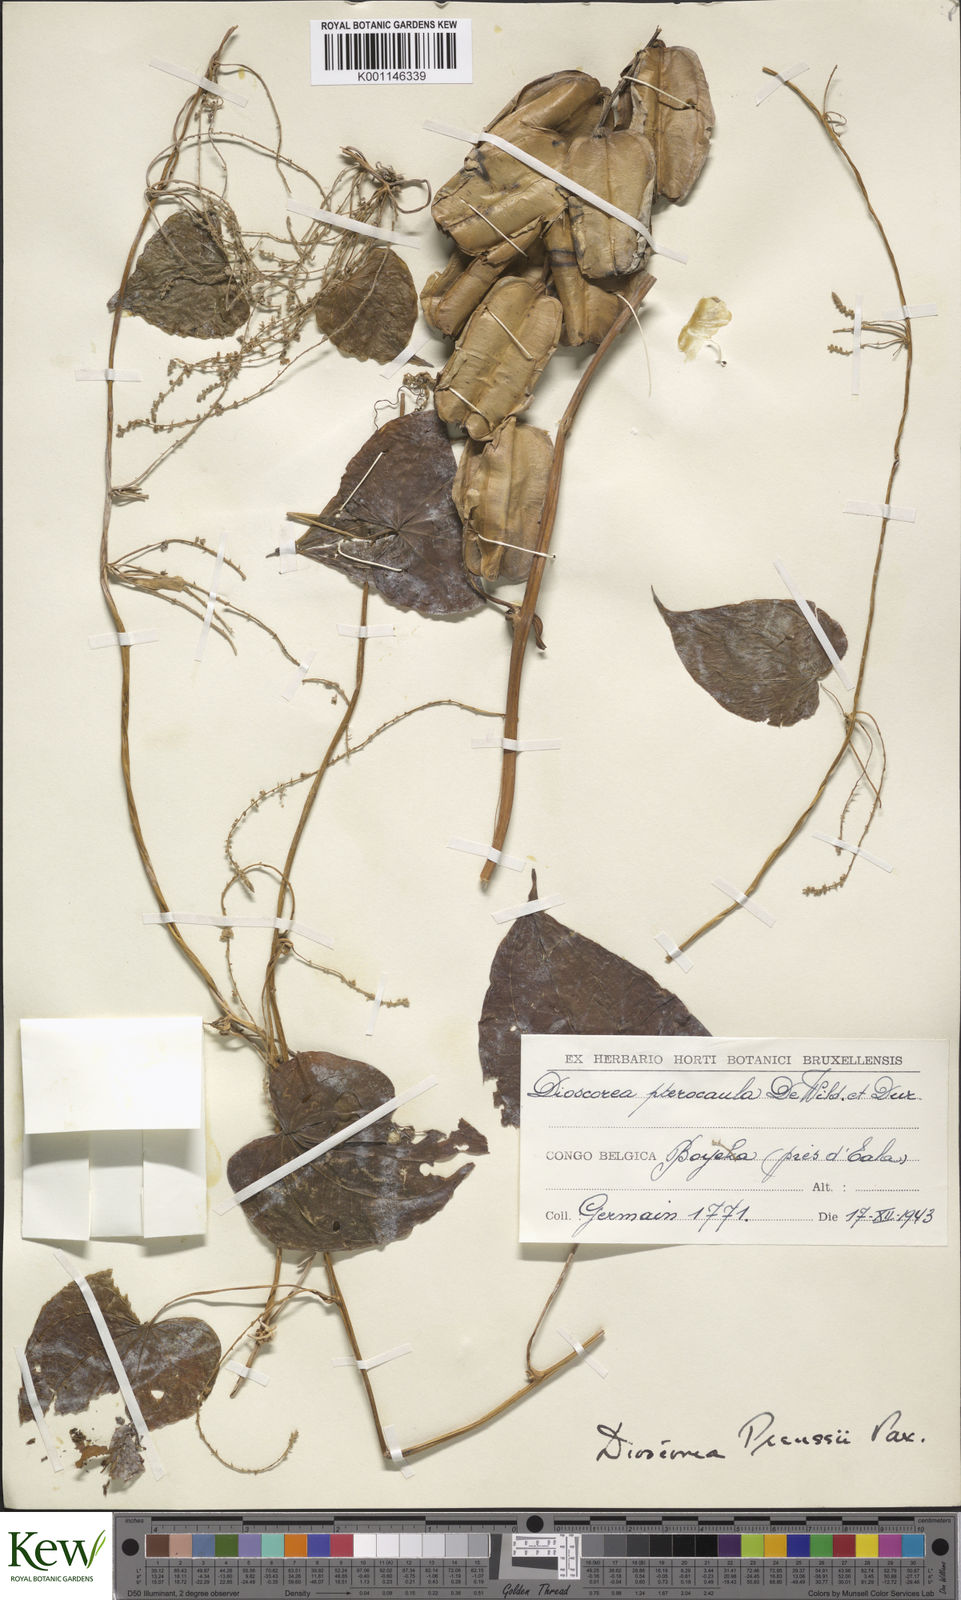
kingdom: Plantae
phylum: Tracheophyta
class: Liliopsida
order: Dioscoreales
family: Dioscoreaceae
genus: Dioscorea
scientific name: Dioscorea preussii
